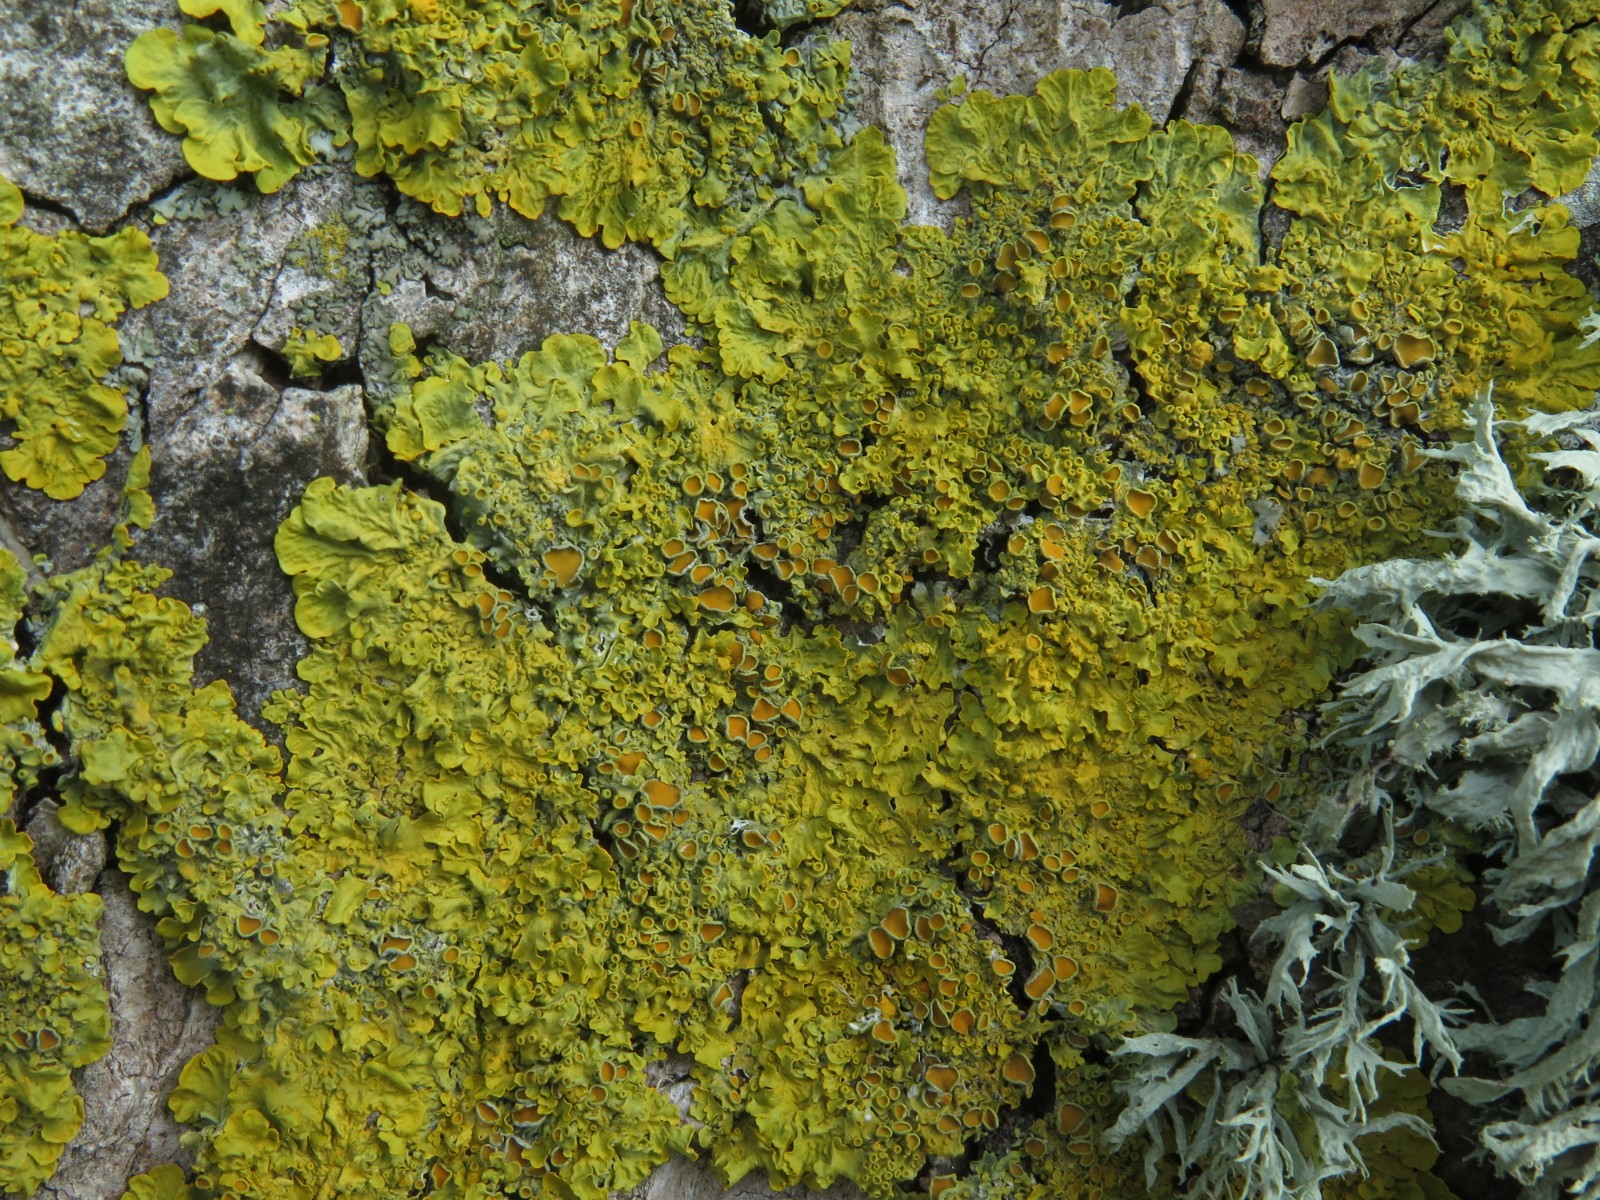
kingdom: Fungi
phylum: Ascomycota
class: Lecanoromycetes
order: Teloschistales
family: Teloschistaceae
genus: Xanthoria
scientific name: Xanthoria parietina
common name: almindelig væggelav
